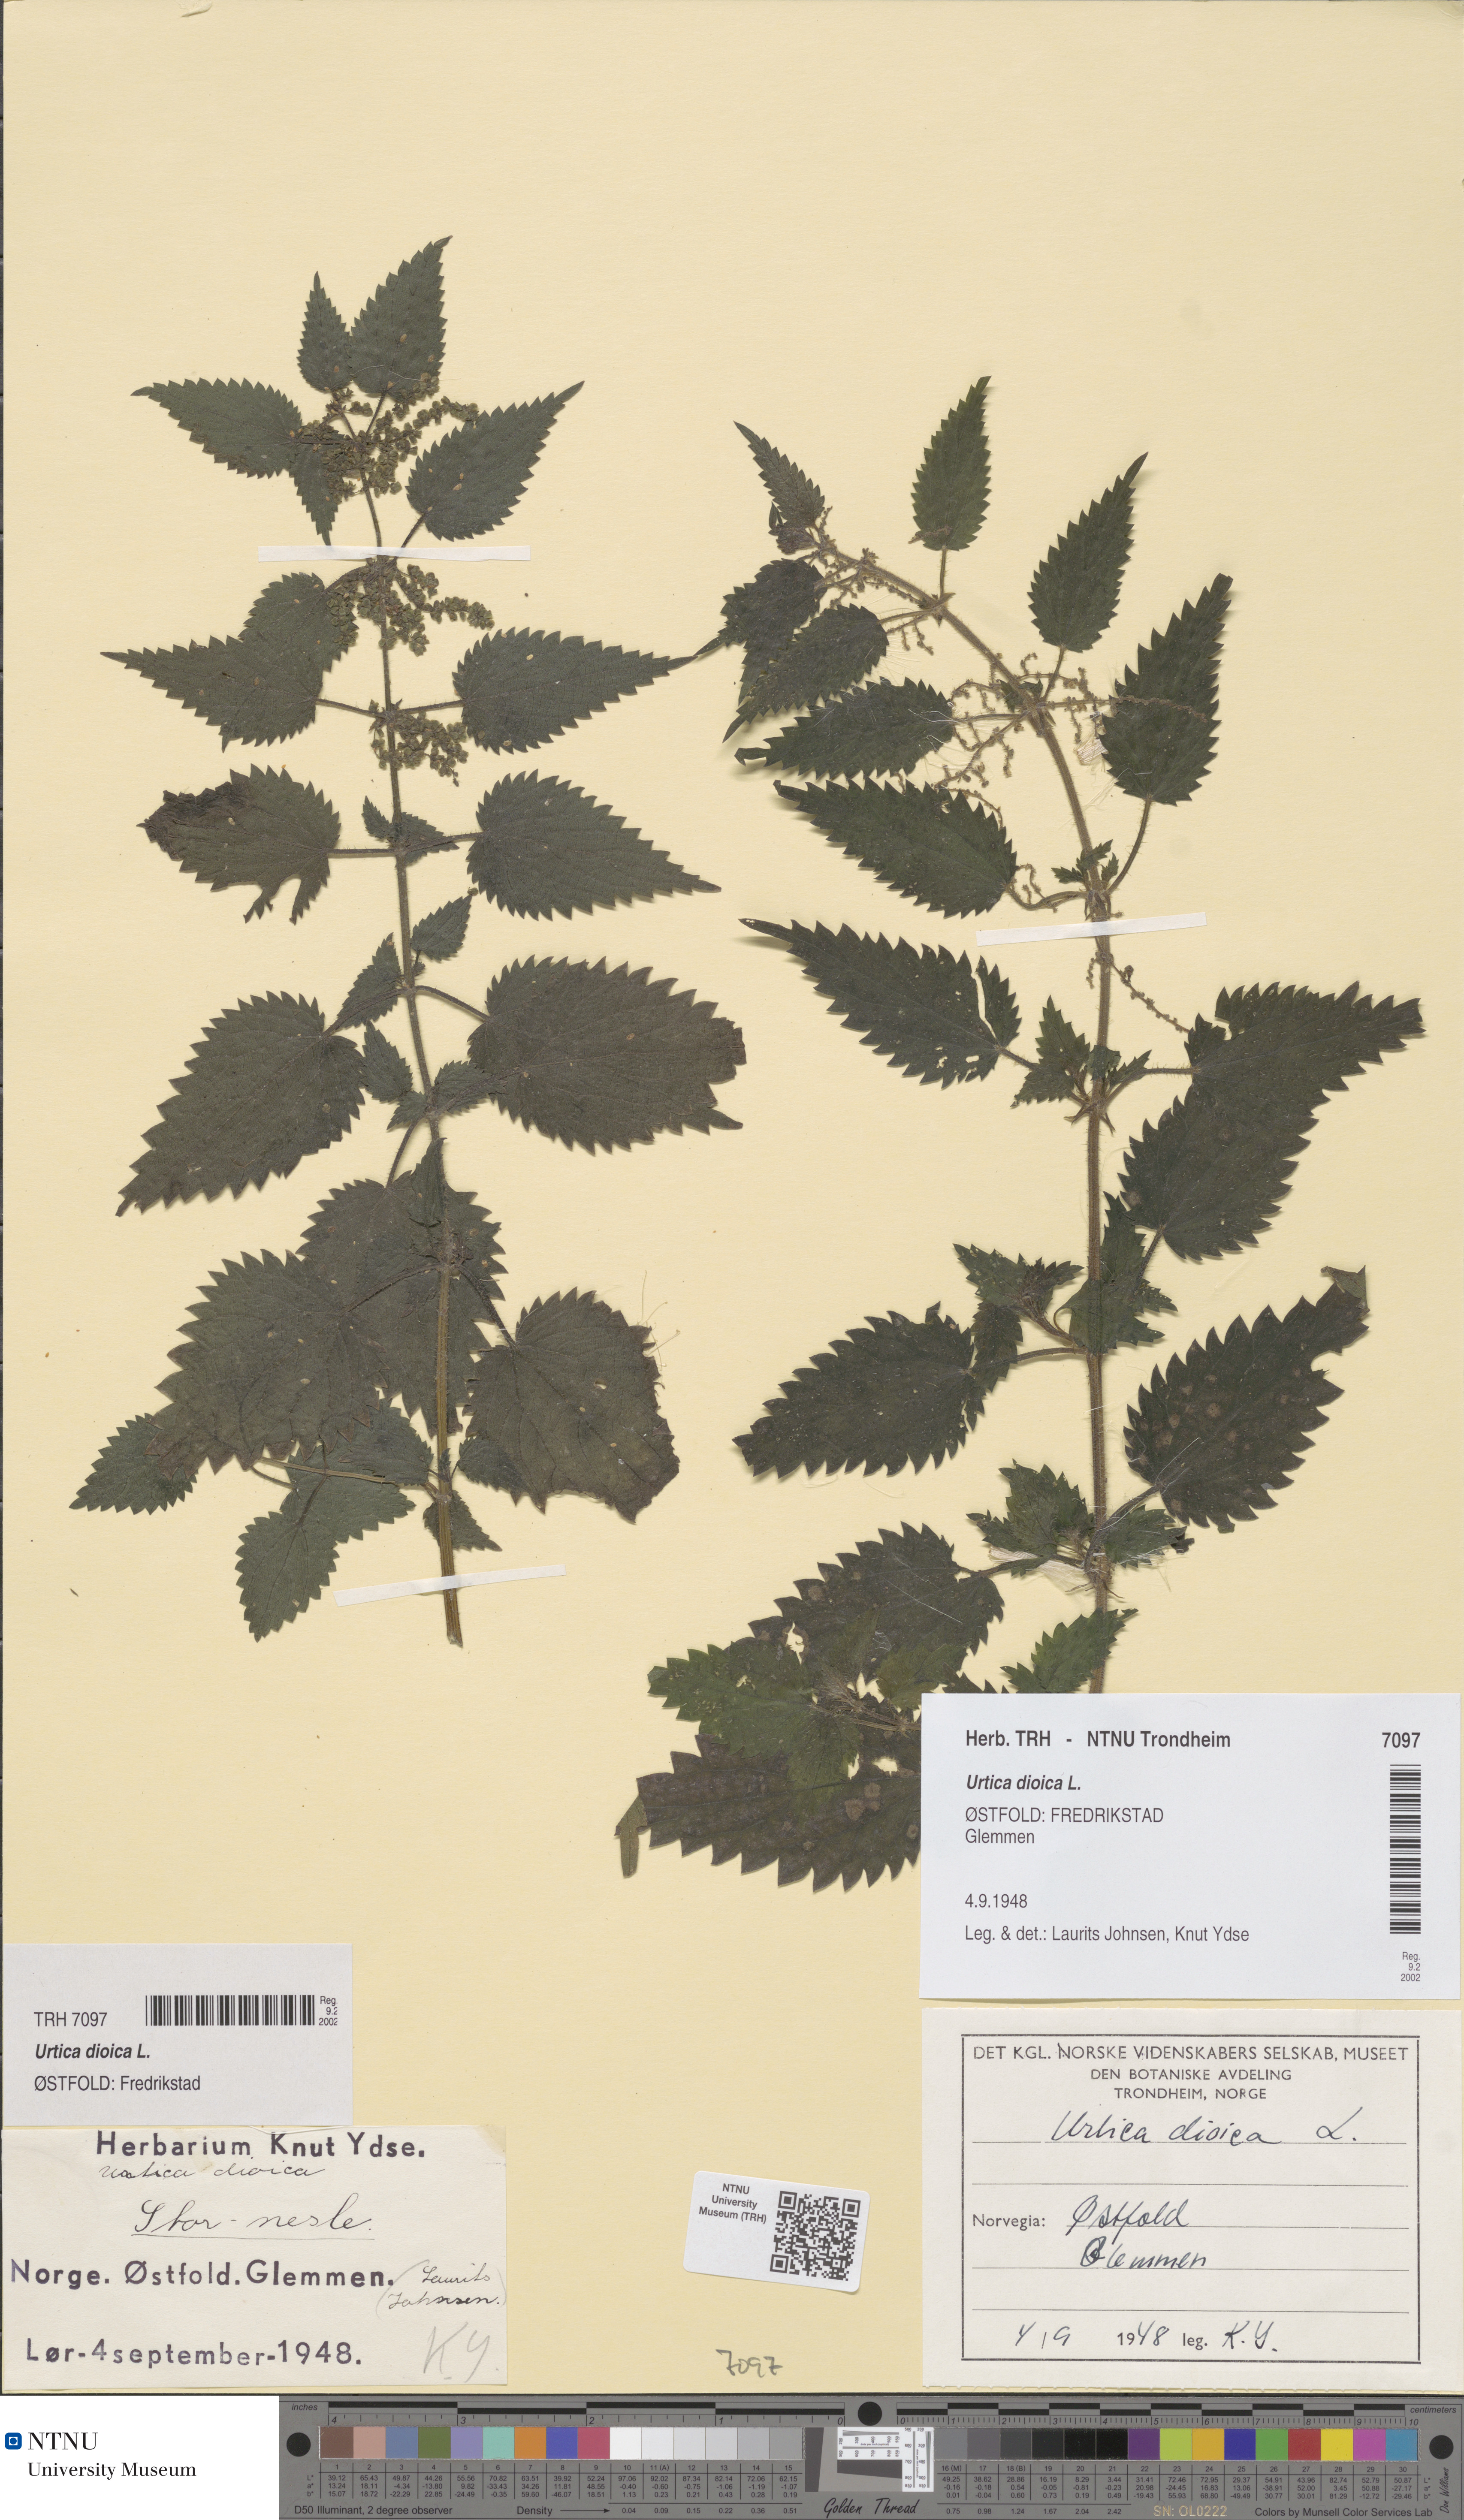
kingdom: Plantae
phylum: Tracheophyta
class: Magnoliopsida
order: Rosales
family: Urticaceae
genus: Urtica
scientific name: Urtica dioica
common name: Common nettle
